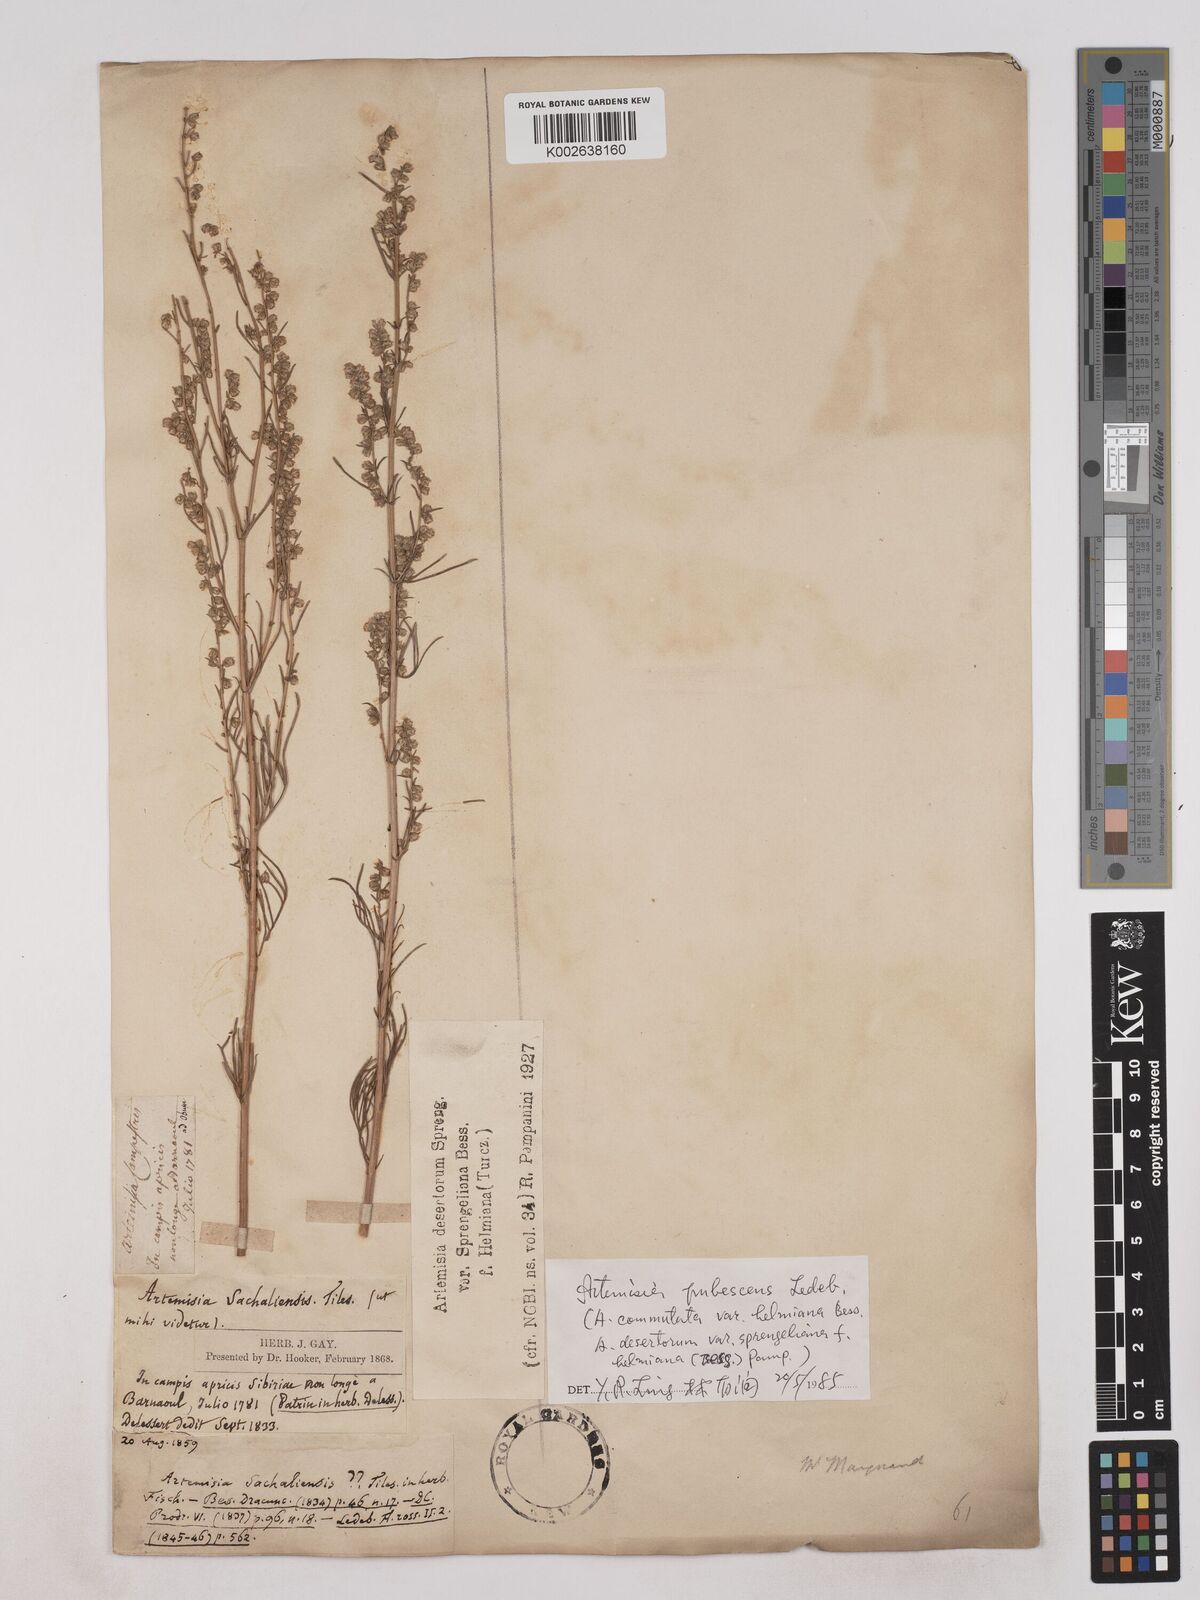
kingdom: Plantae
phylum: Tracheophyta
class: Magnoliopsida
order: Asterales
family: Asteraceae
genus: Artemisia
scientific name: Artemisia pubescens
